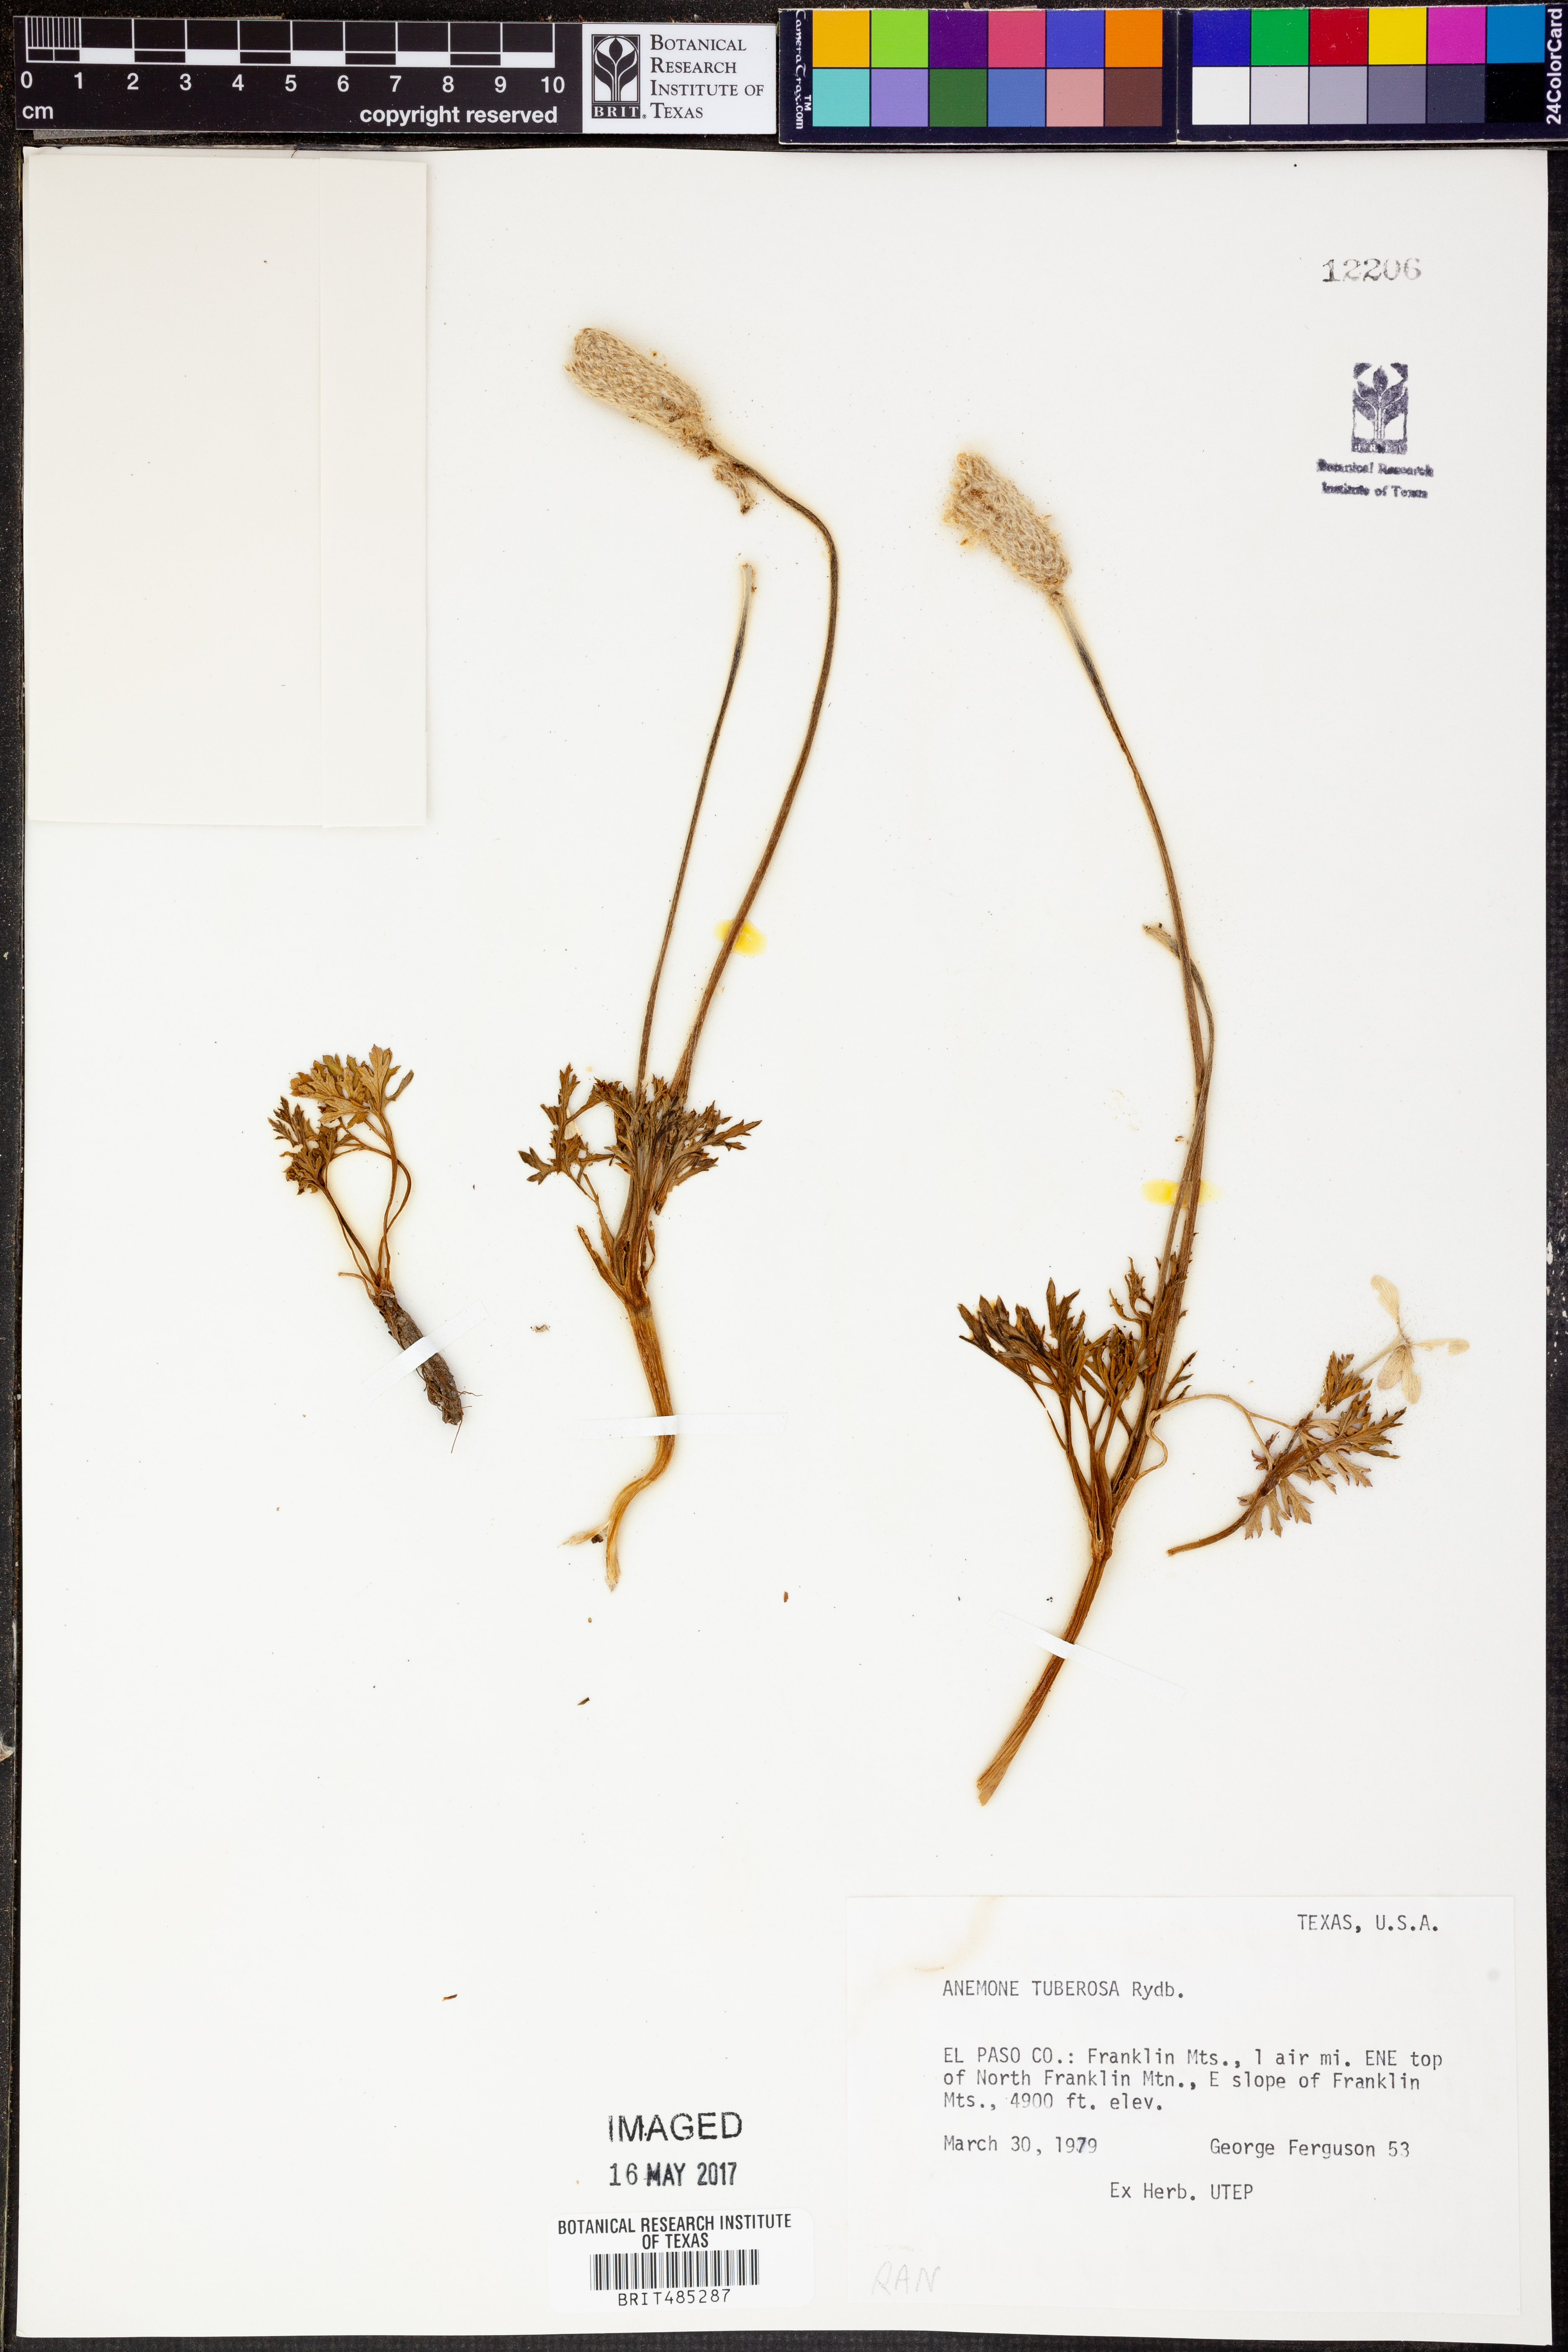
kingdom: Plantae
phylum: Tracheophyta
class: Magnoliopsida
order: Ranunculales
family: Ranunculaceae
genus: Anemone
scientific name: Anemone tuberosa
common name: Desert anemone
